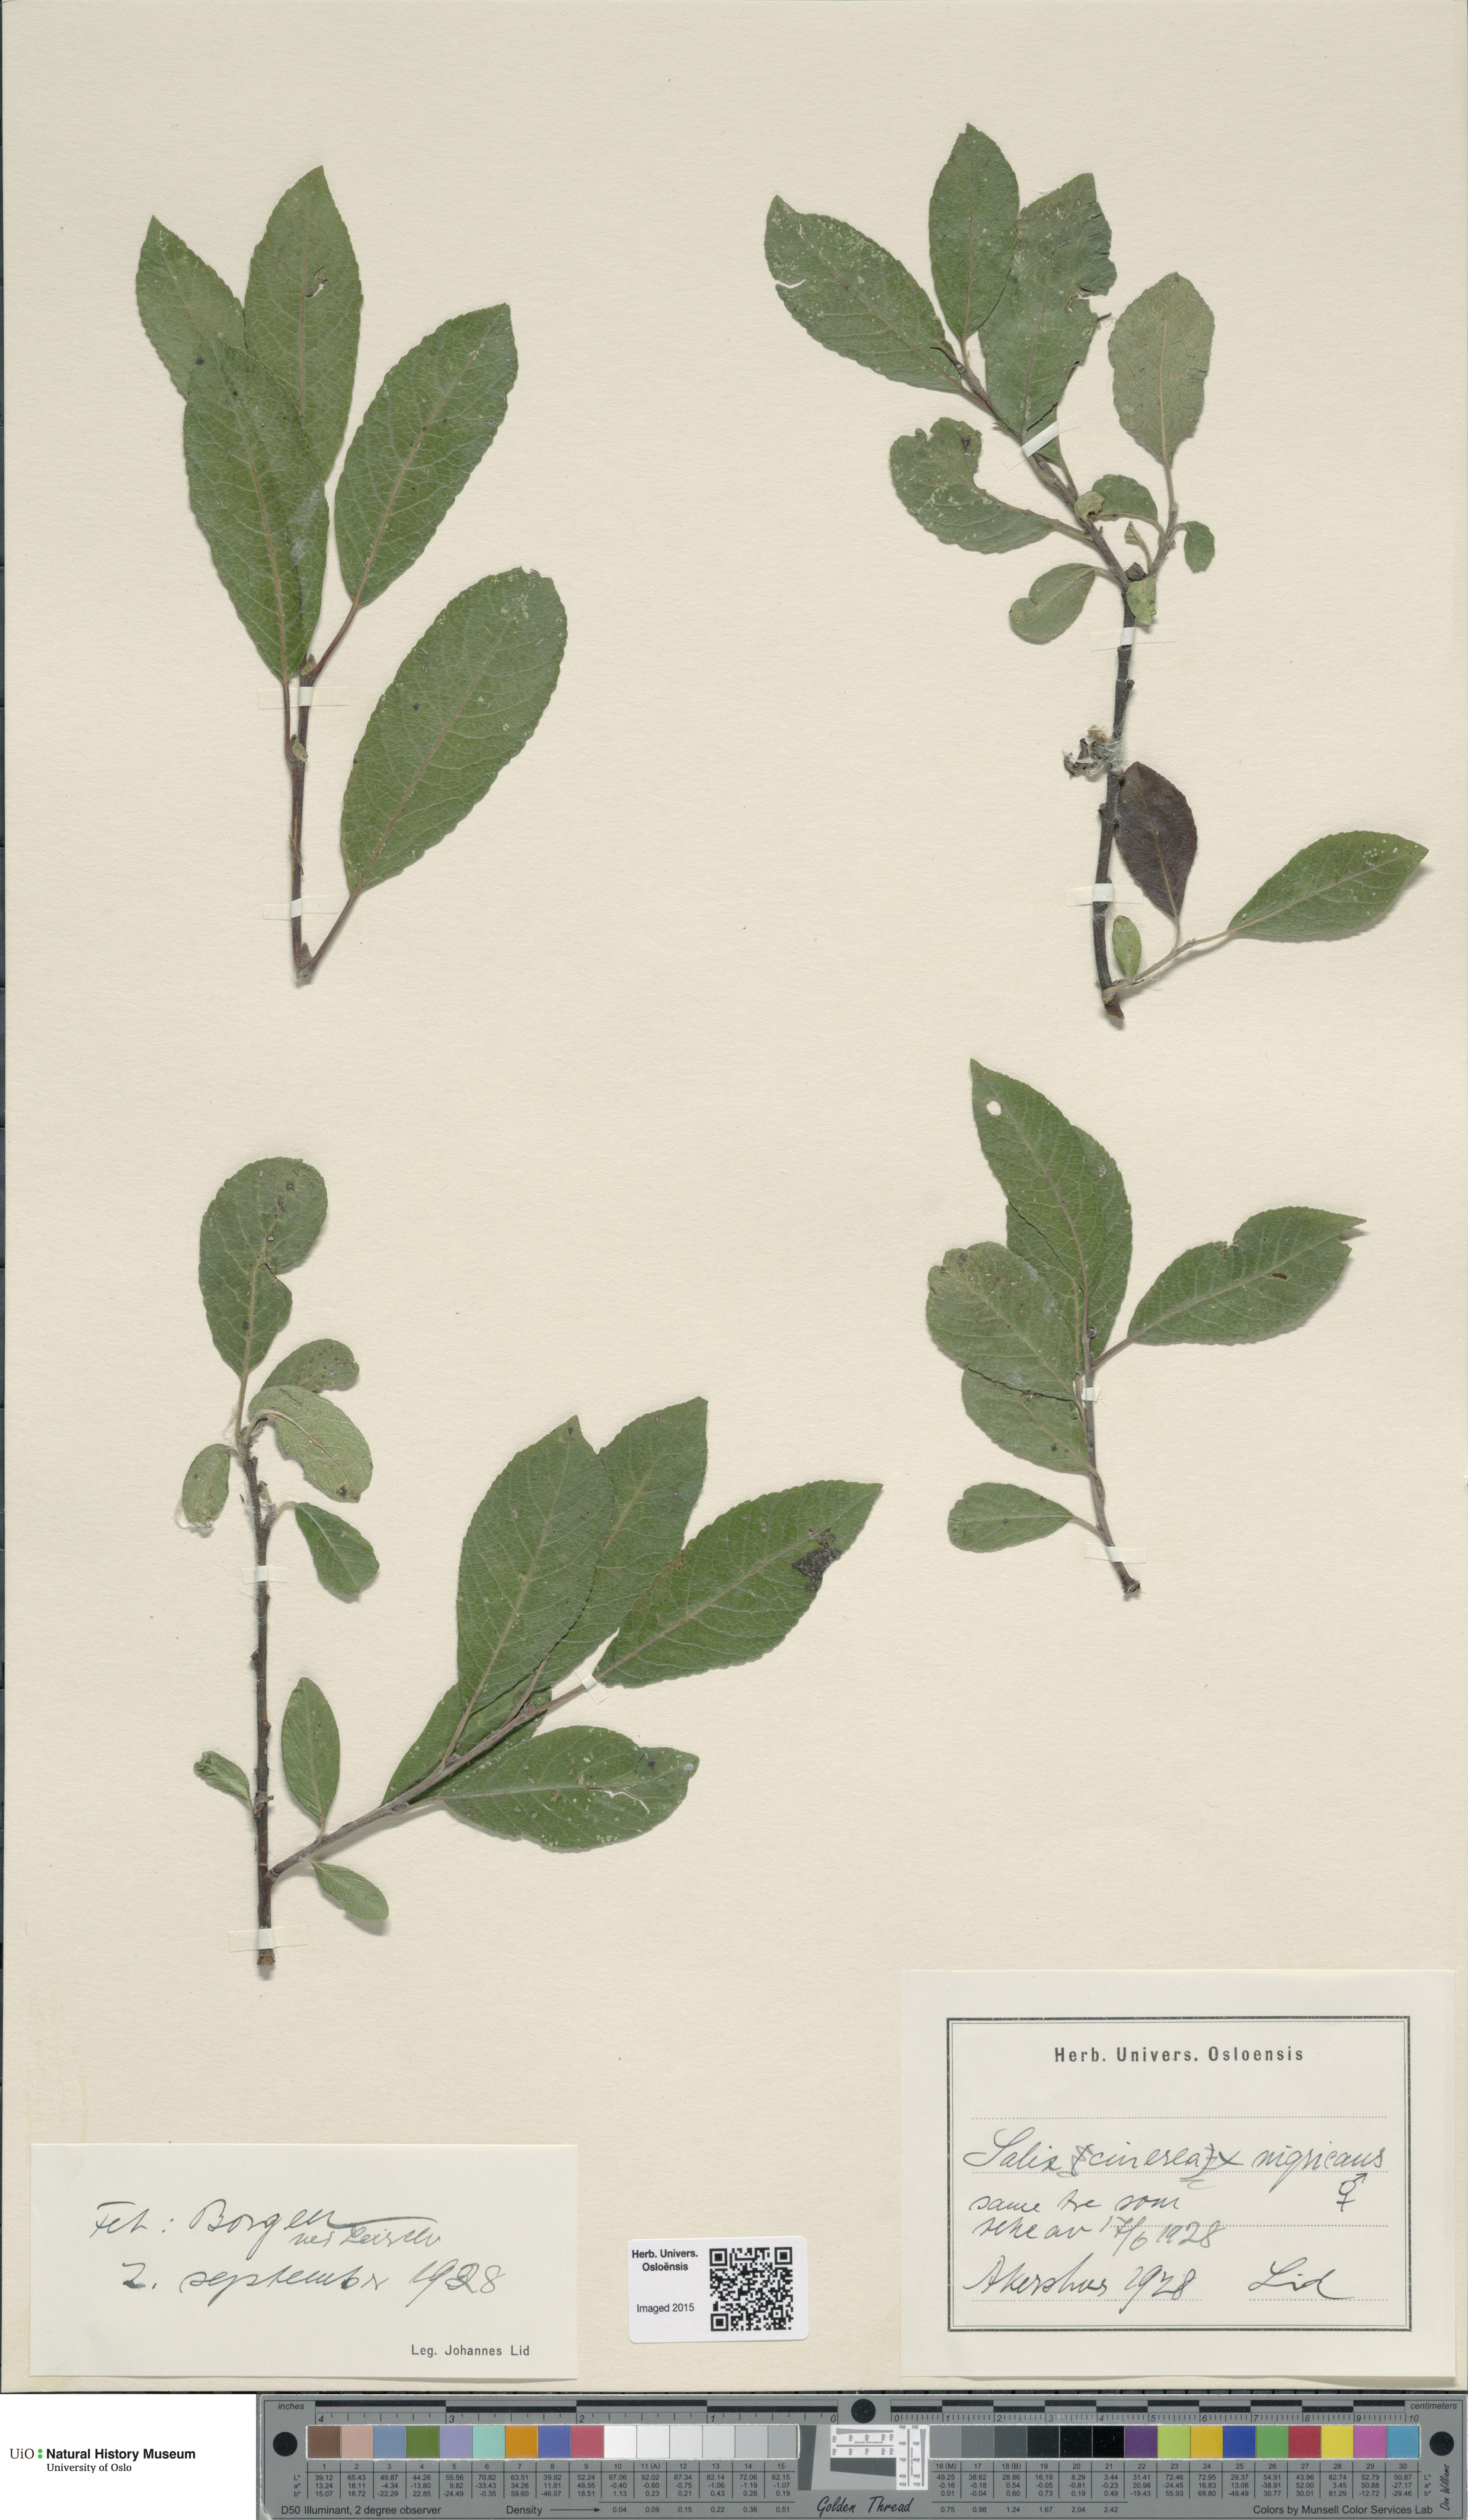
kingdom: Plantae
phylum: Tracheophyta
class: Magnoliopsida
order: Malpighiales
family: Salicaceae
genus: Salix
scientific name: Salix
